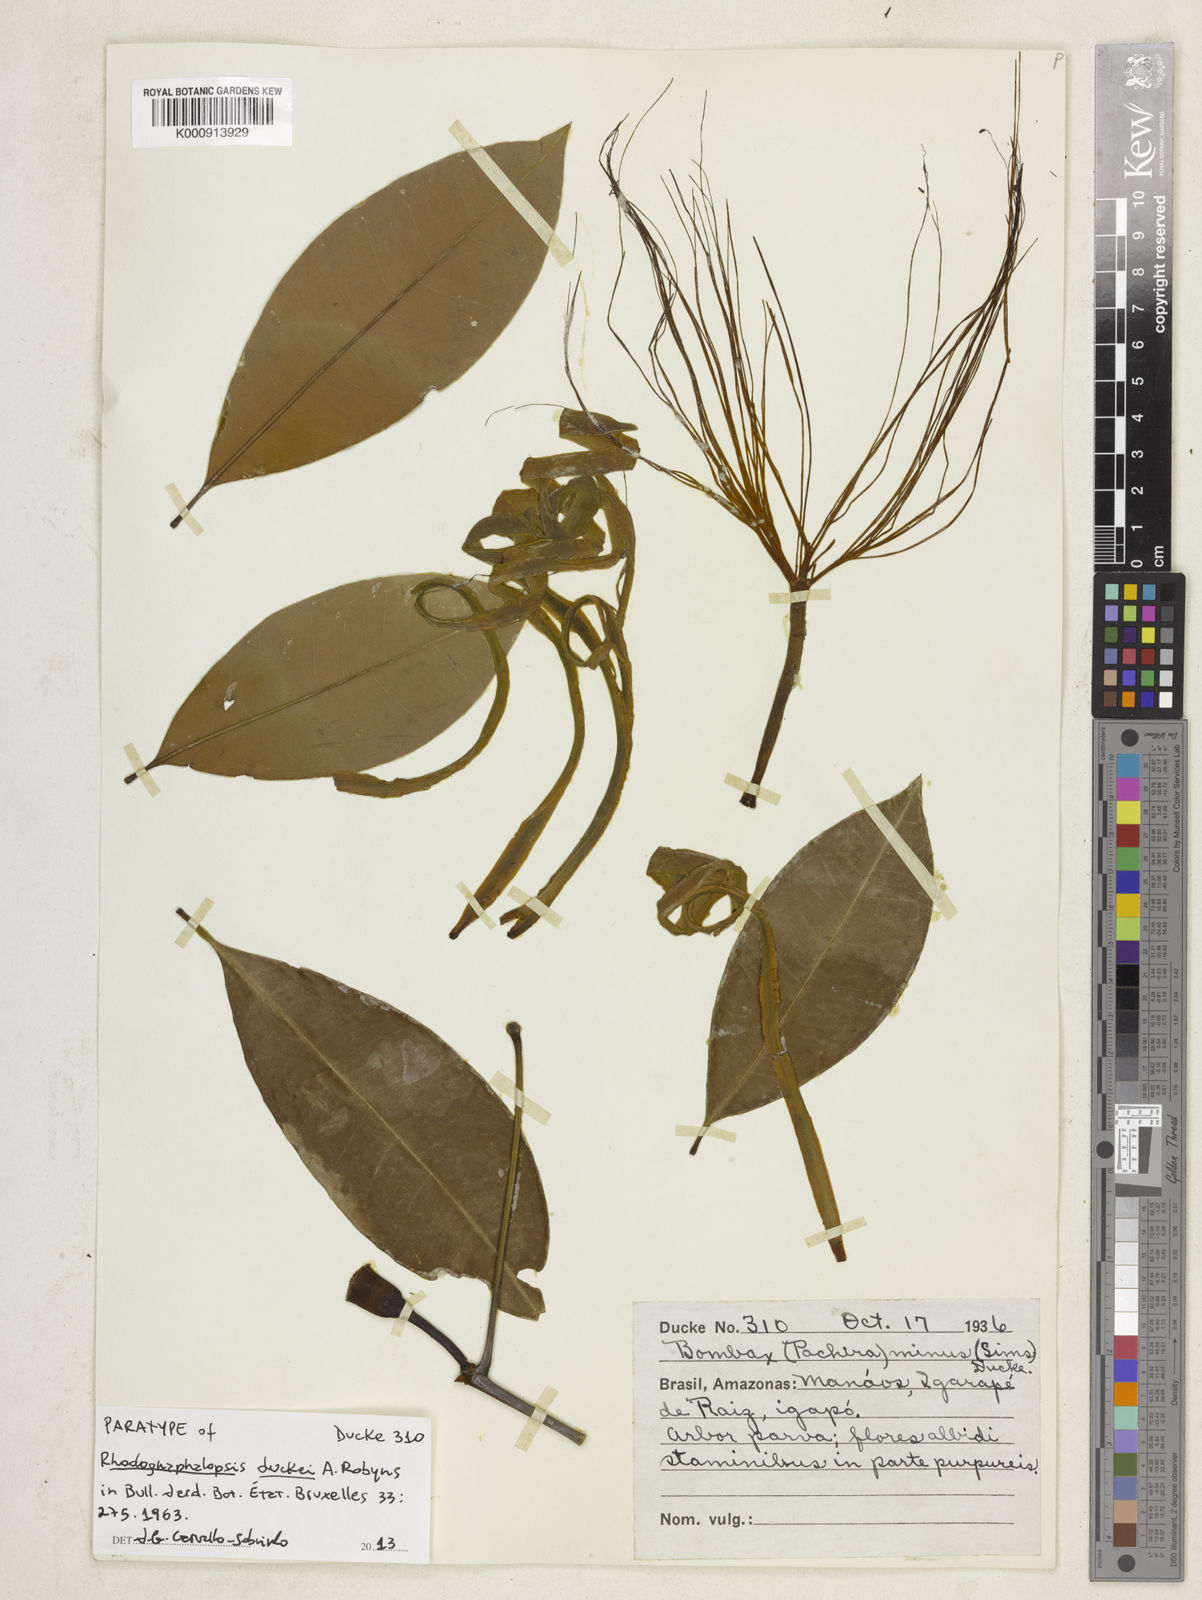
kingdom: Plantae
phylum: Tracheophyta
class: Magnoliopsida
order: Malvales
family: Malvaceae
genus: Pachira
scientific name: Pachira duckei
